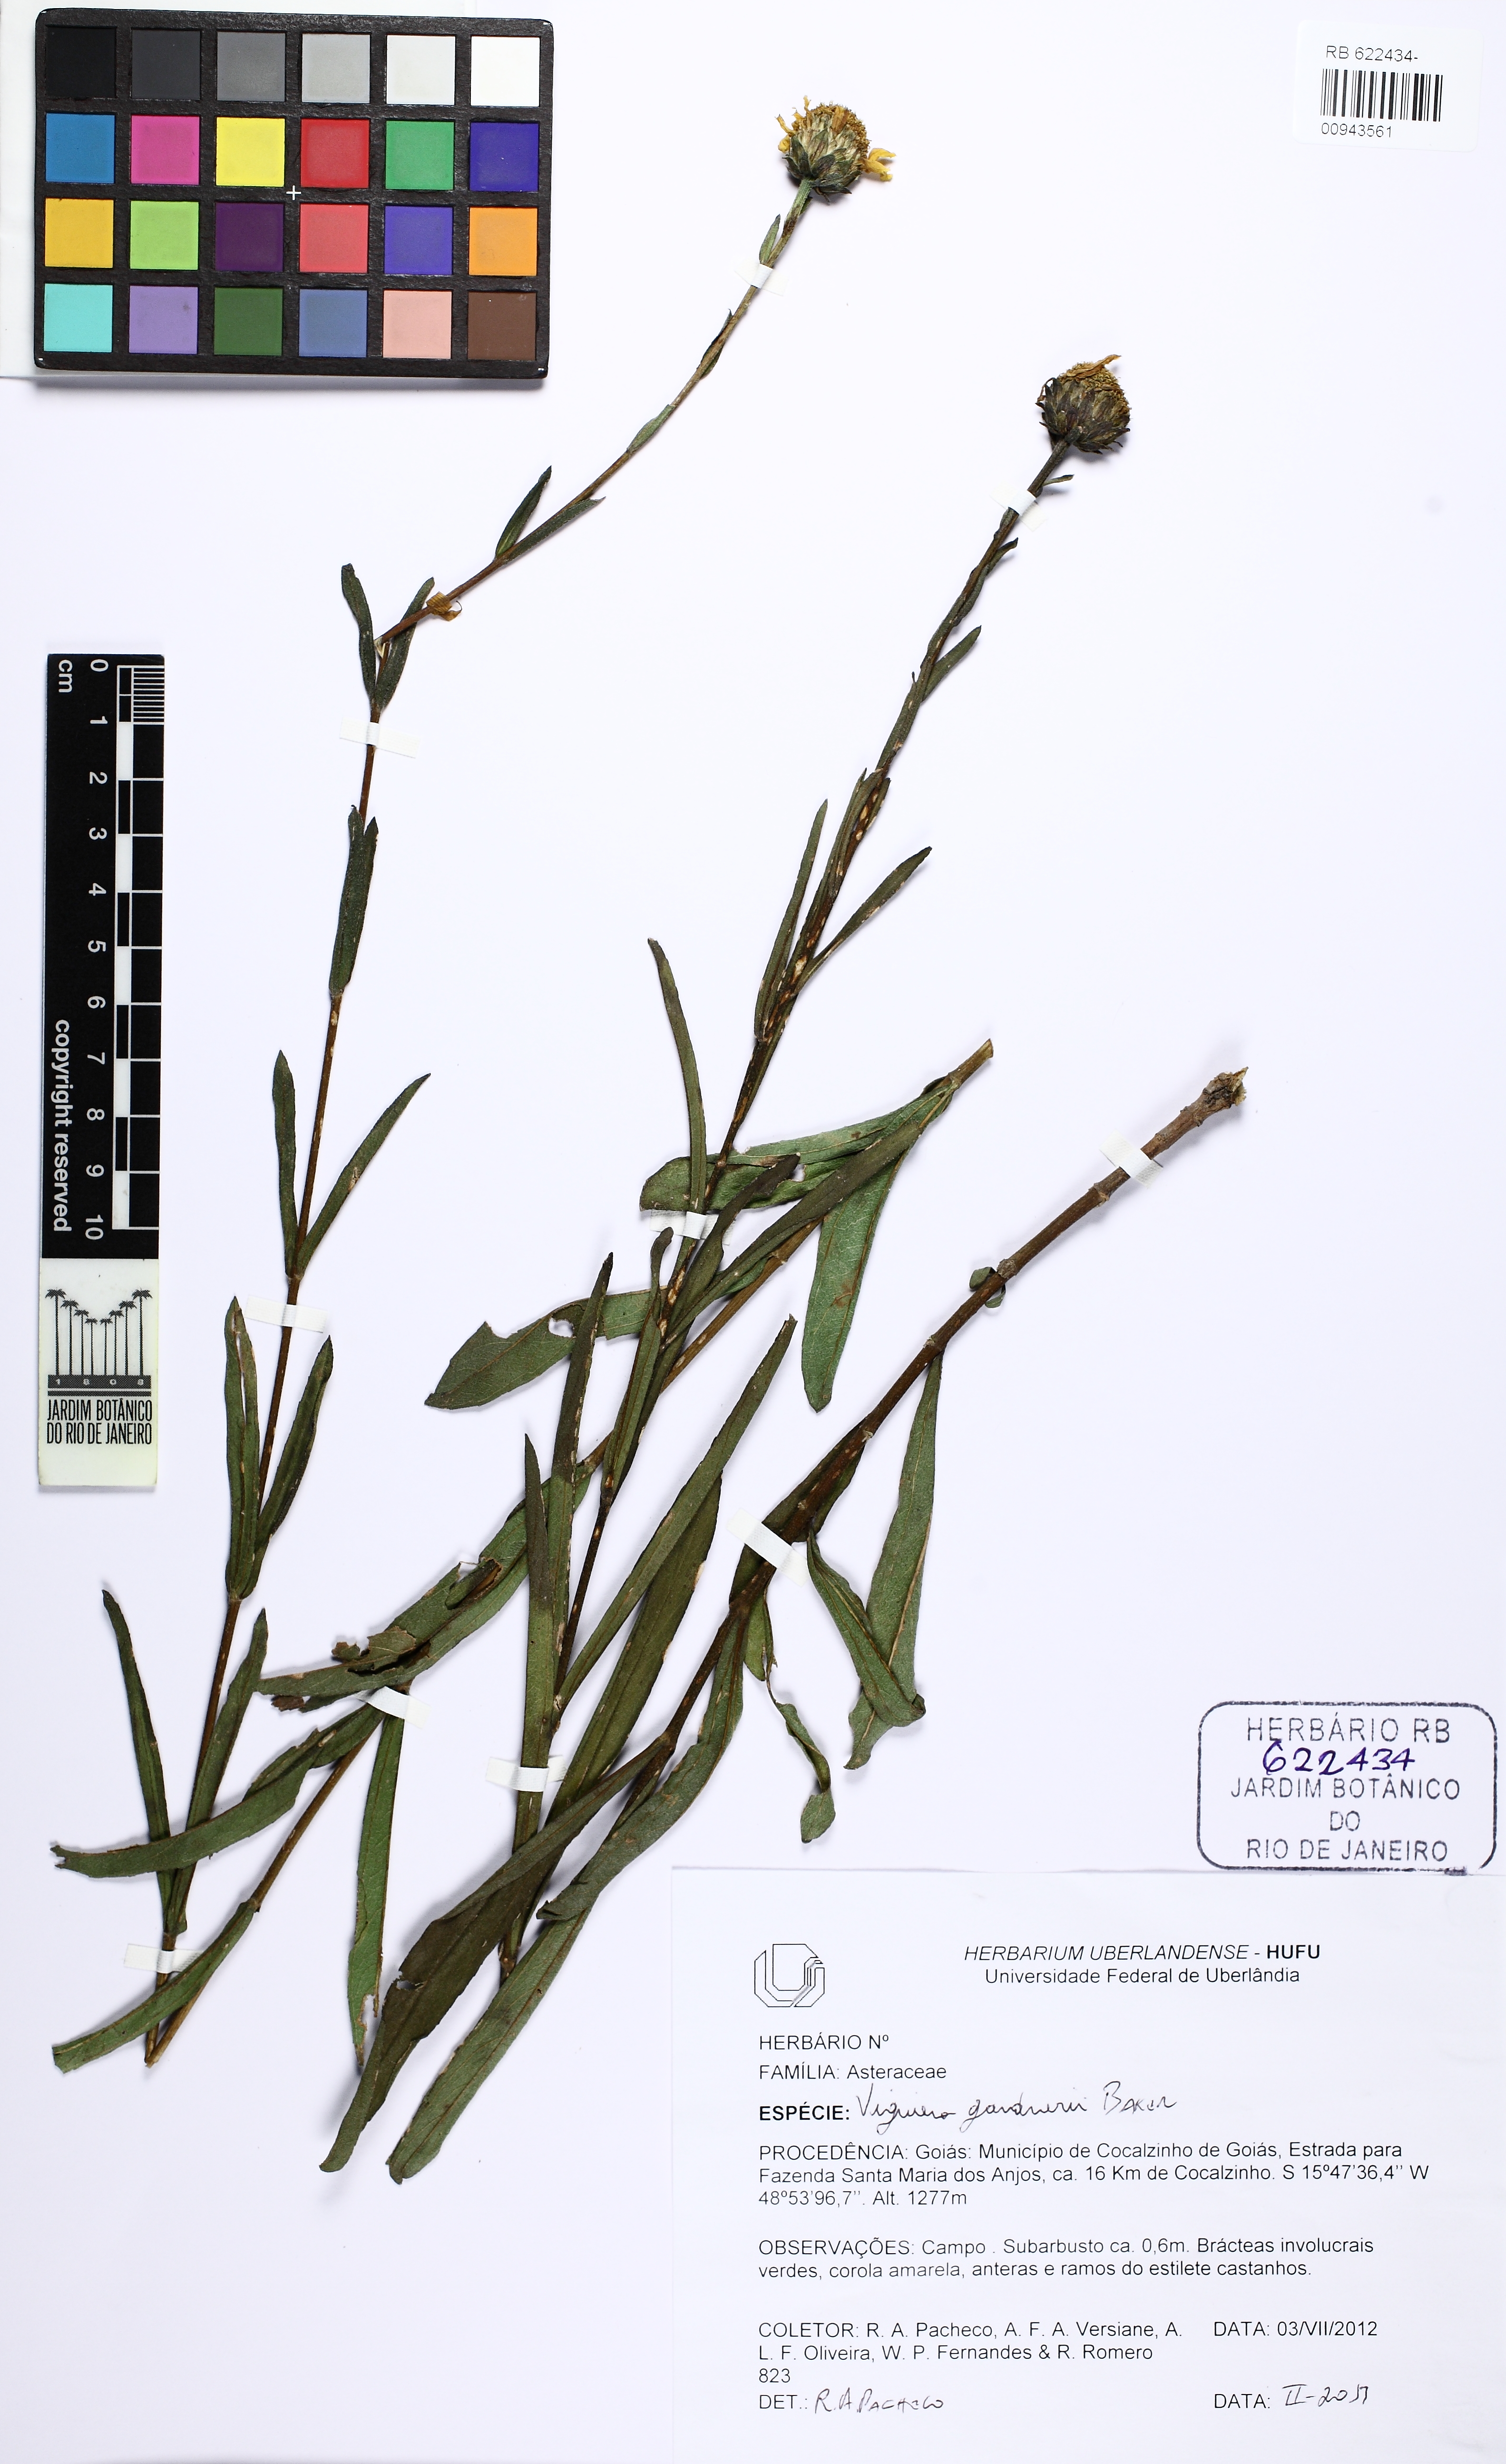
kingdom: Plantae
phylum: Tracheophyta
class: Magnoliopsida
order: Asterales
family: Asteraceae
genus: Aldama
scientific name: Aldama gardneri
